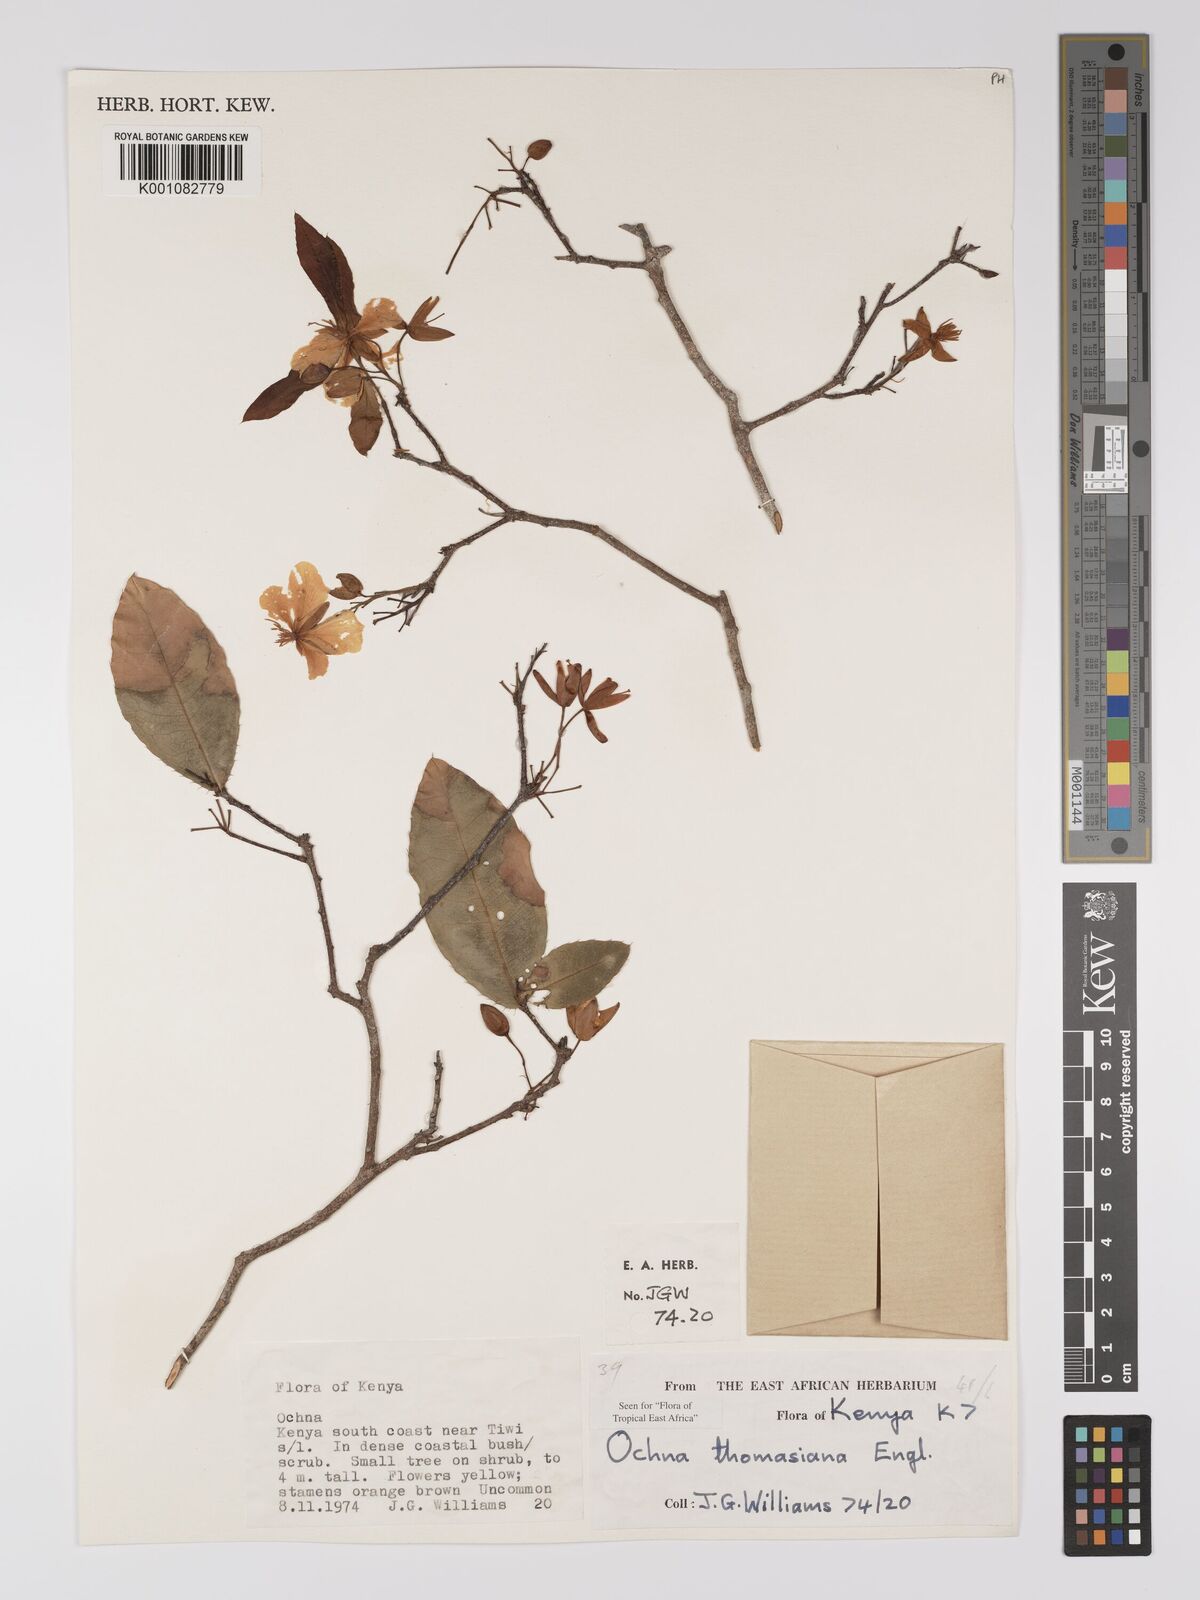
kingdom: Plantae
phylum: Tracheophyta
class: Magnoliopsida
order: Malpighiales
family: Ochnaceae
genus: Ochna
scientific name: Ochna thomasiana
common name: Thomas' bird's-eye bush
